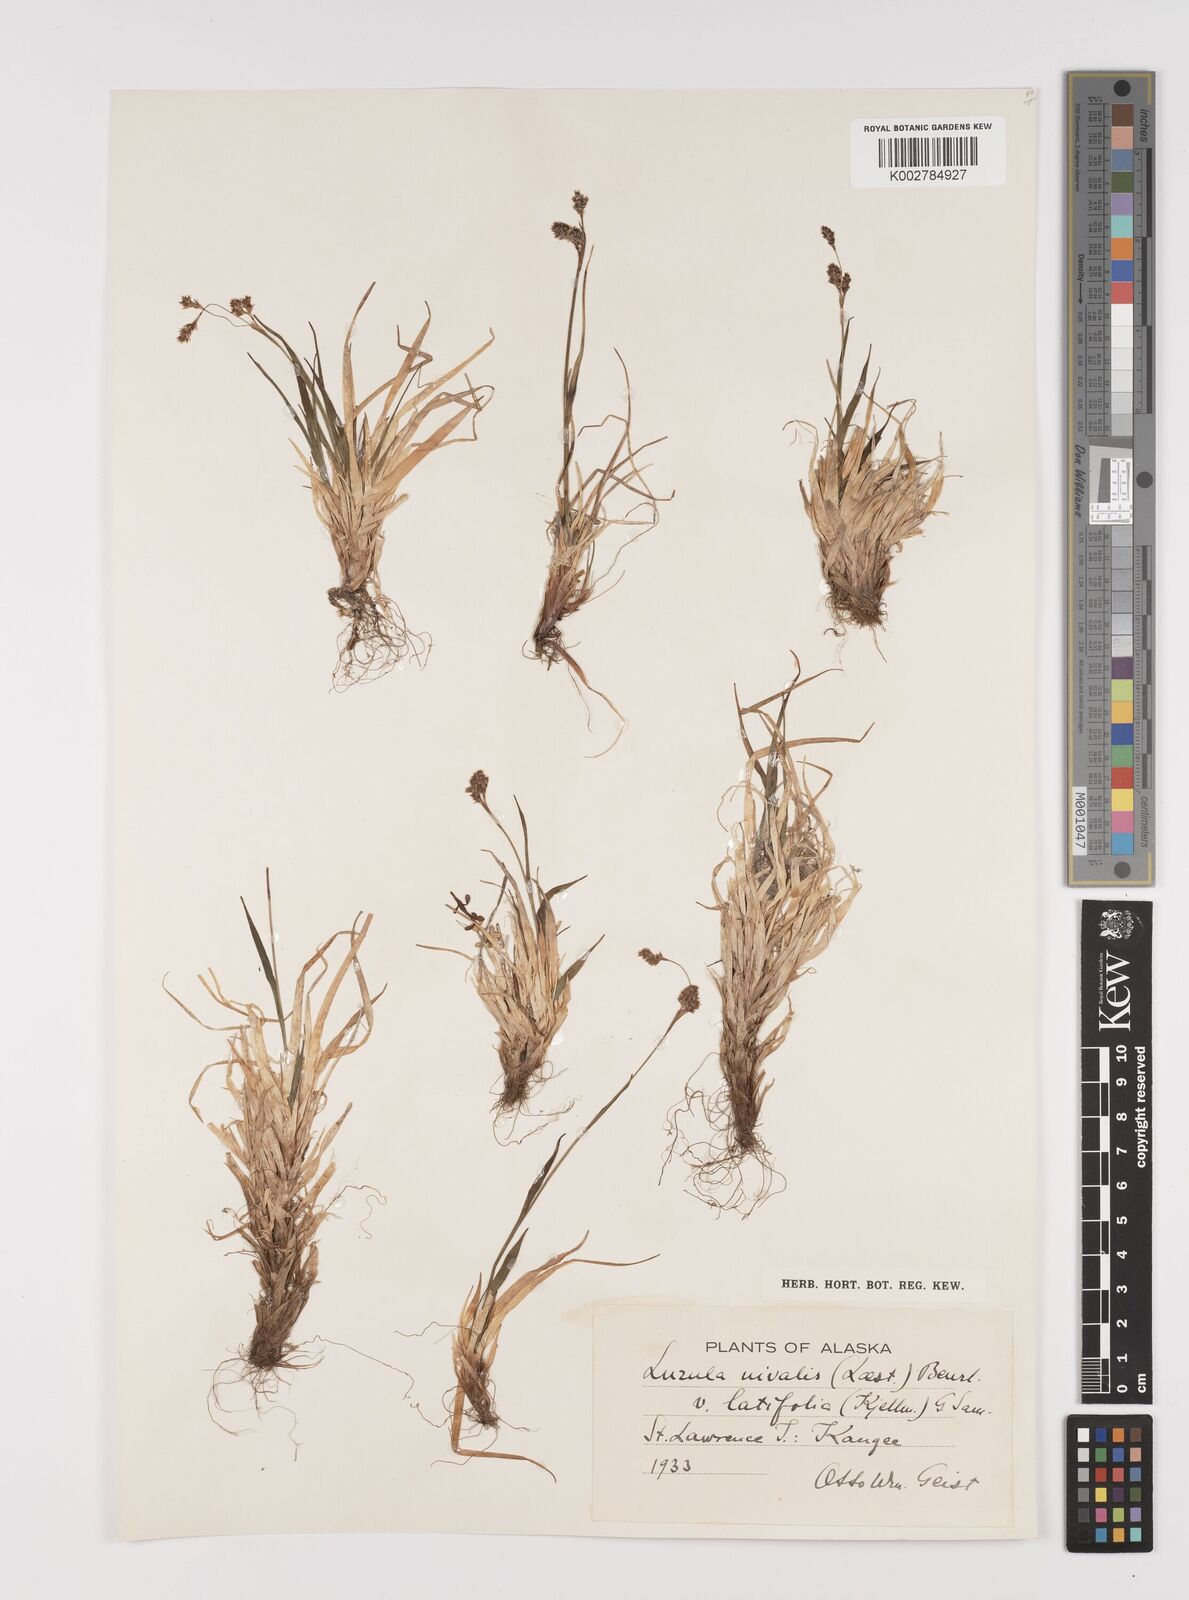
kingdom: Plantae
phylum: Tracheophyta
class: Liliopsida
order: Poales
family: Juncaceae
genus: Luzula
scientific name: Luzula nivalis
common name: Arctic woodrush
